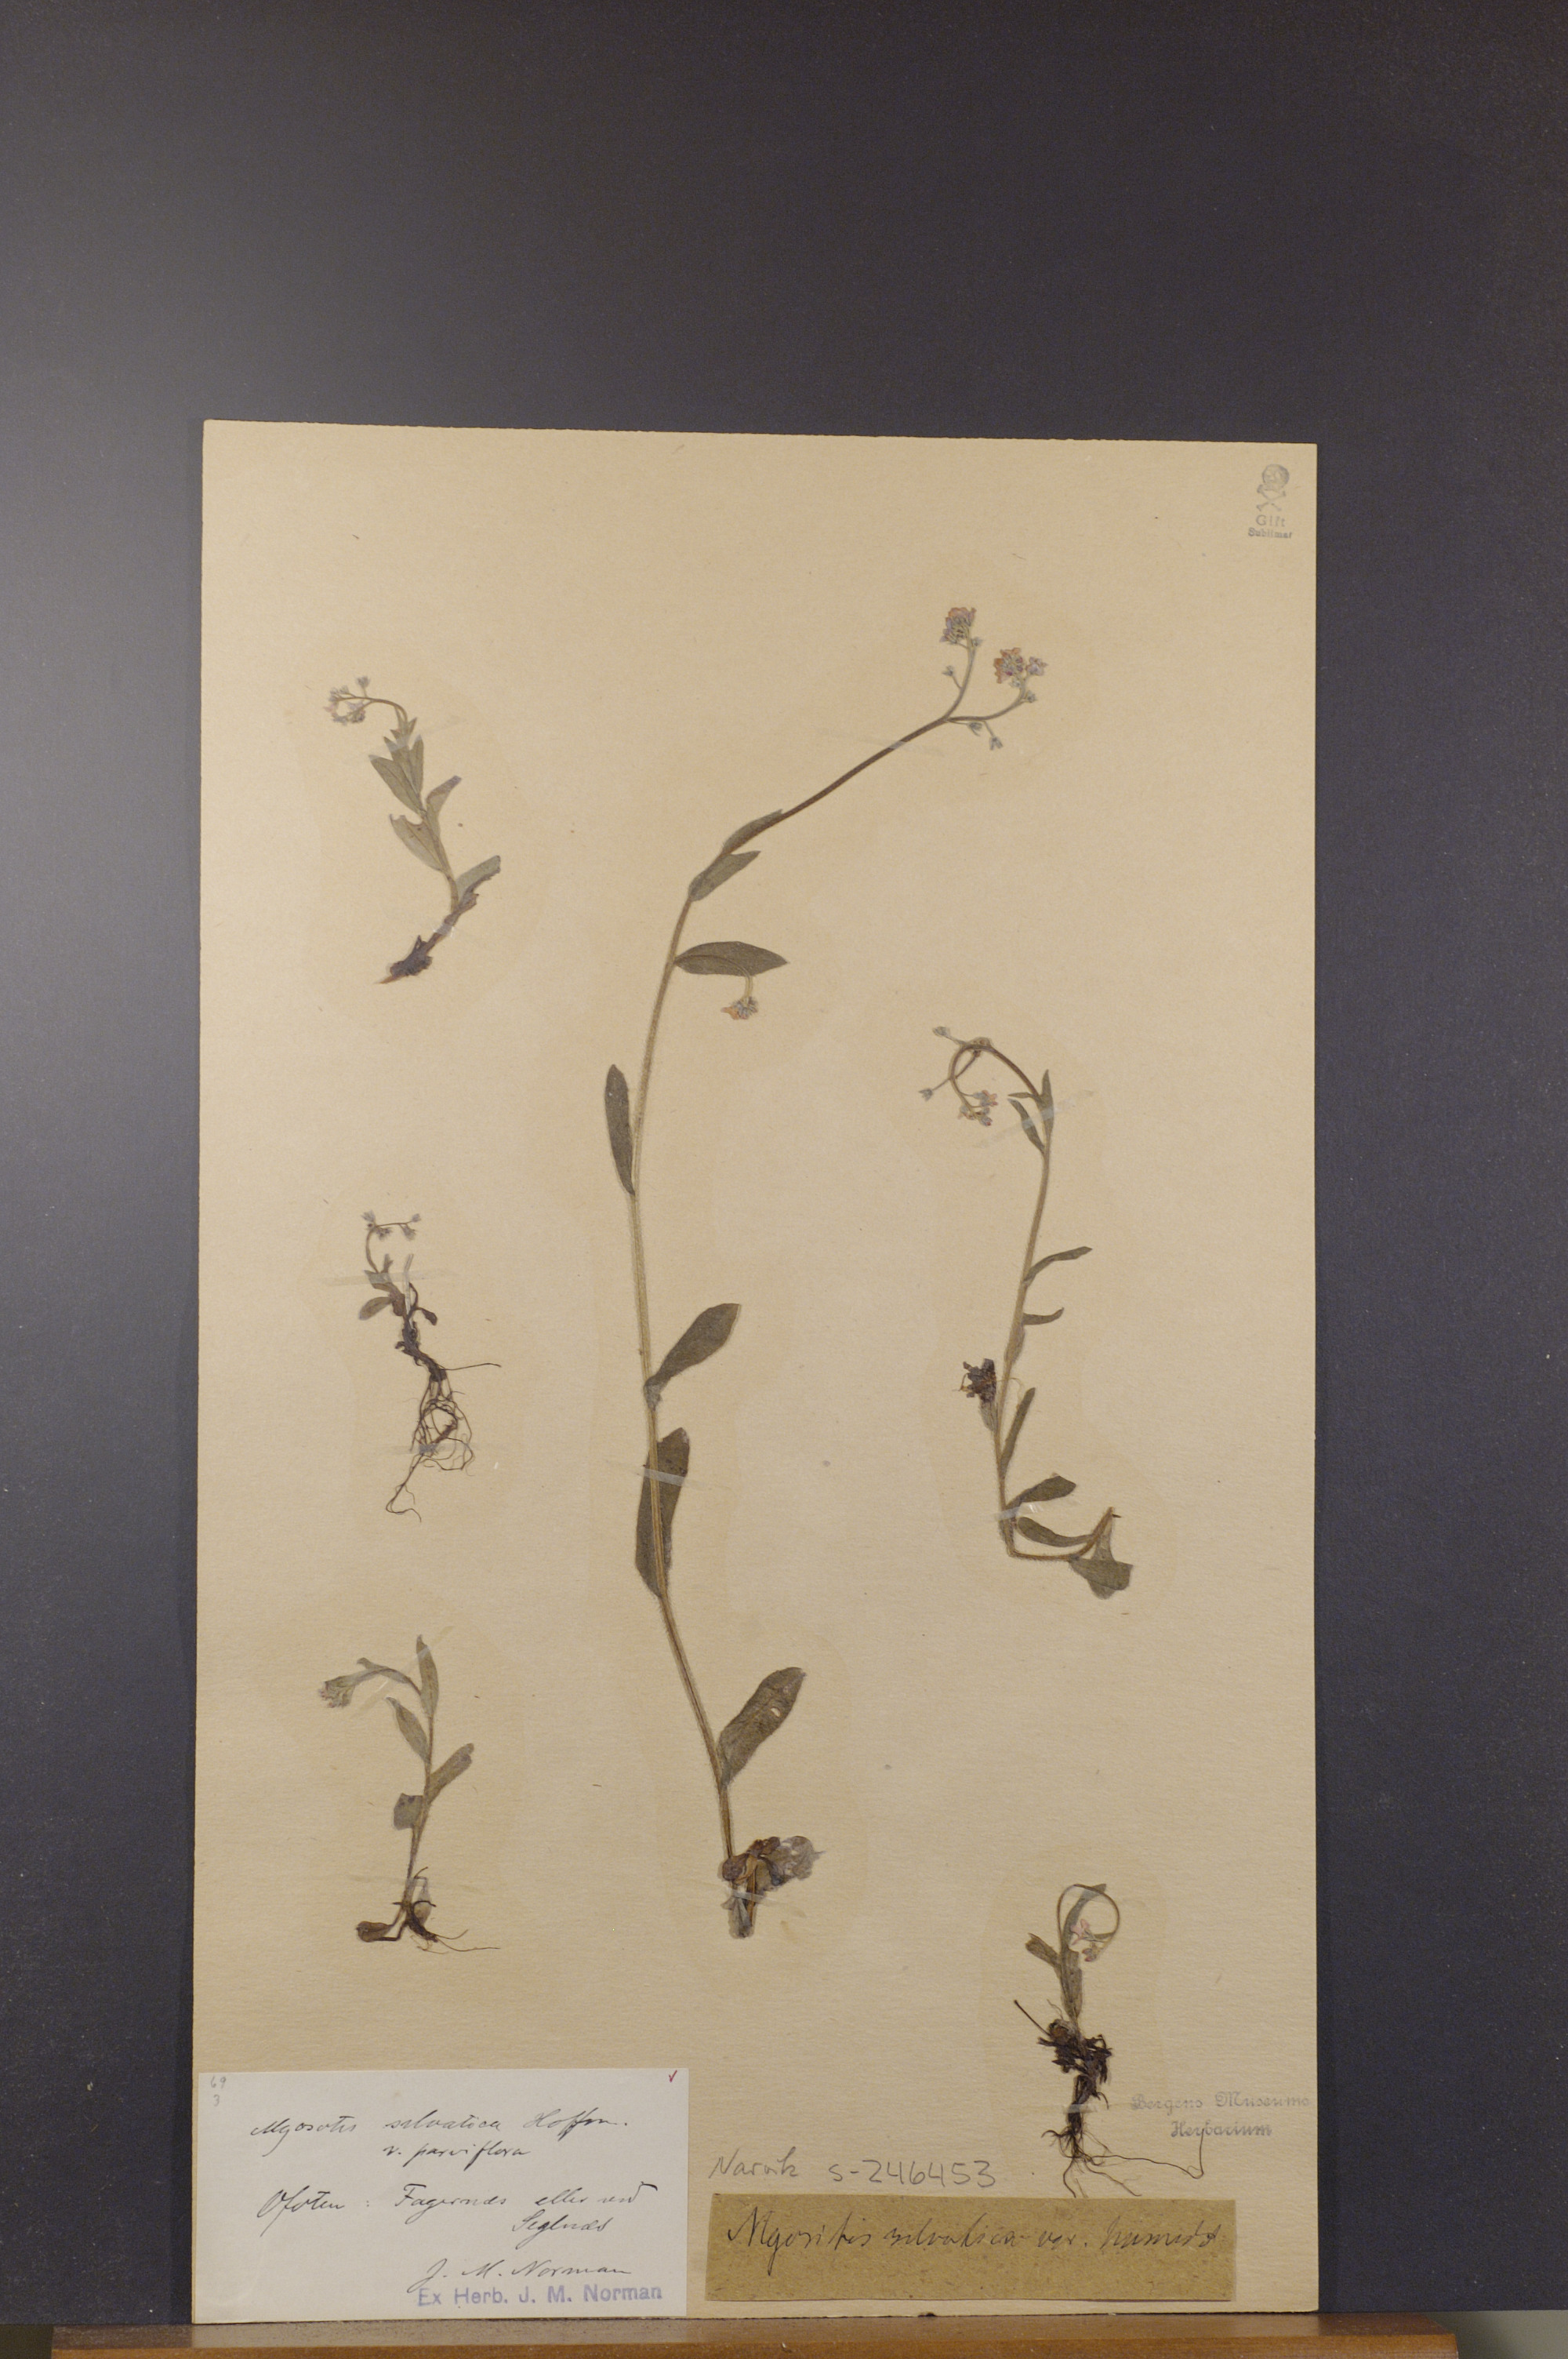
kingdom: Plantae
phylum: Tracheophyta
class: Magnoliopsida
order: Boraginales
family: Boraginaceae
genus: Myosotis
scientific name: Myosotis decumbens
